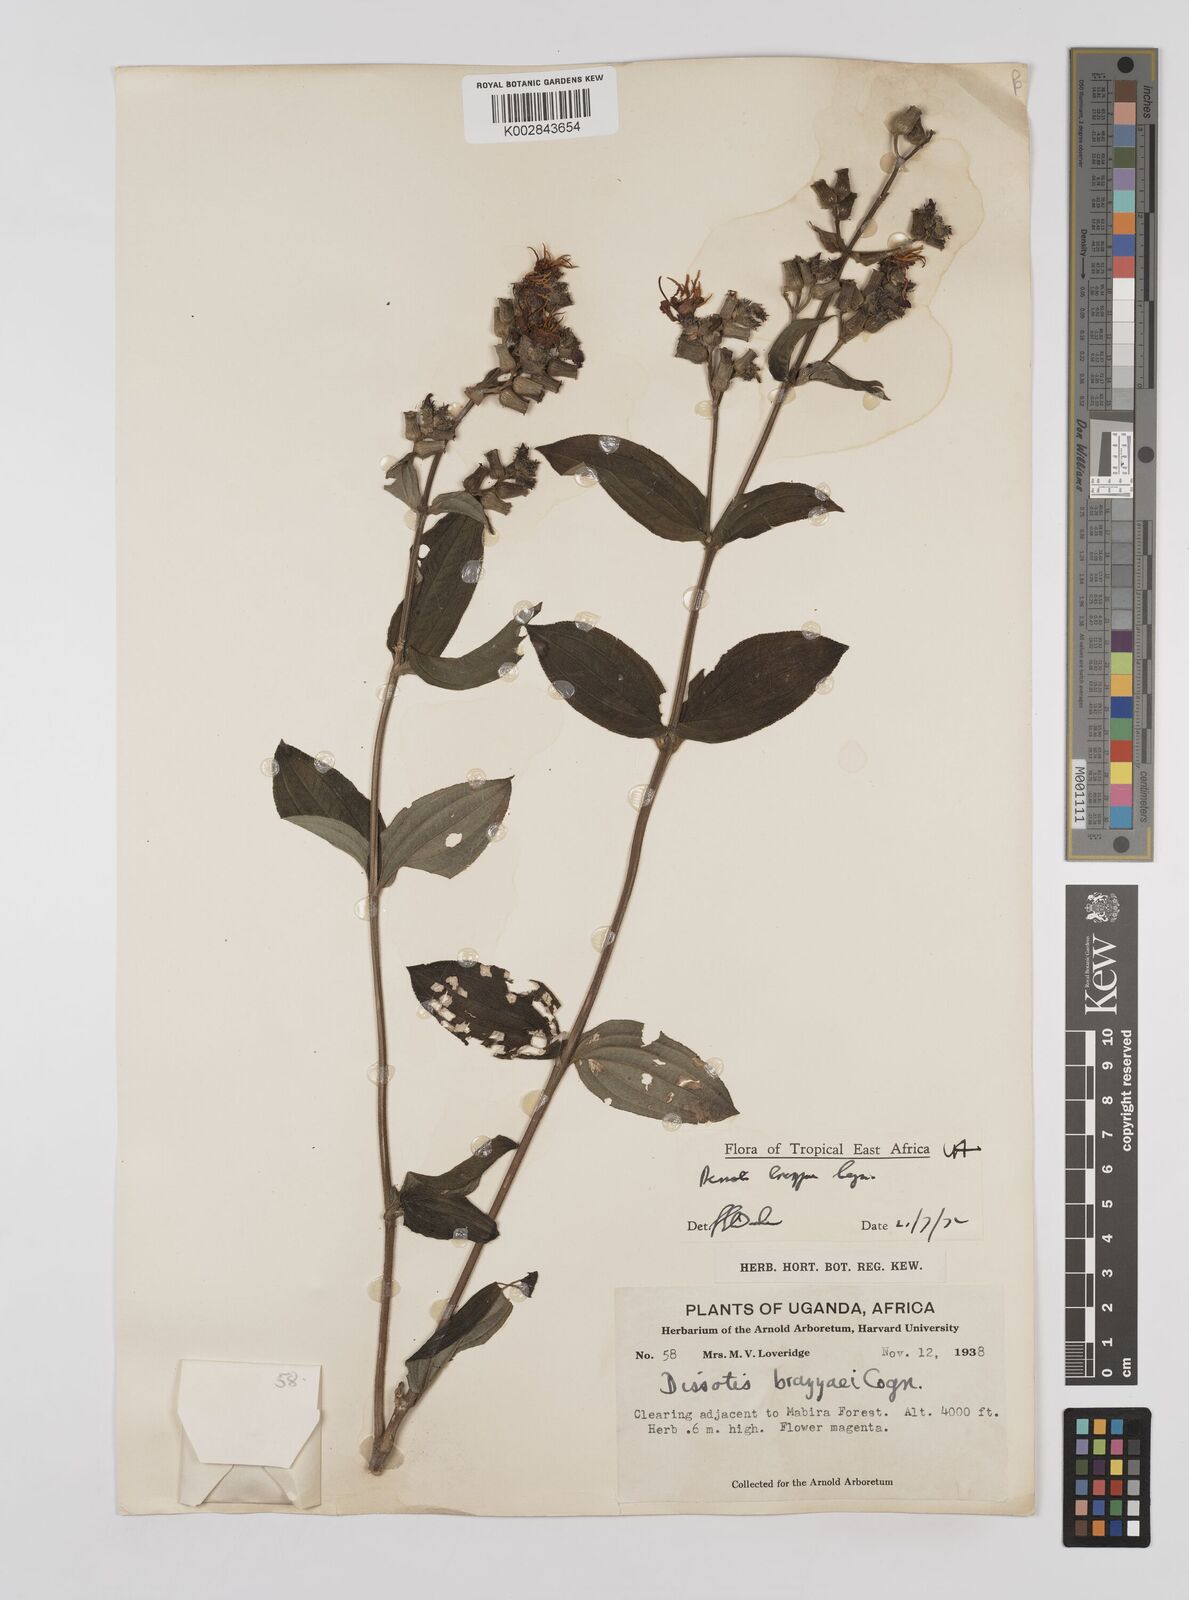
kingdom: Plantae
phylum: Tracheophyta
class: Magnoliopsida
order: Myrtales
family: Melastomataceae
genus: Dupineta
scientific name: Dupineta brazzae
